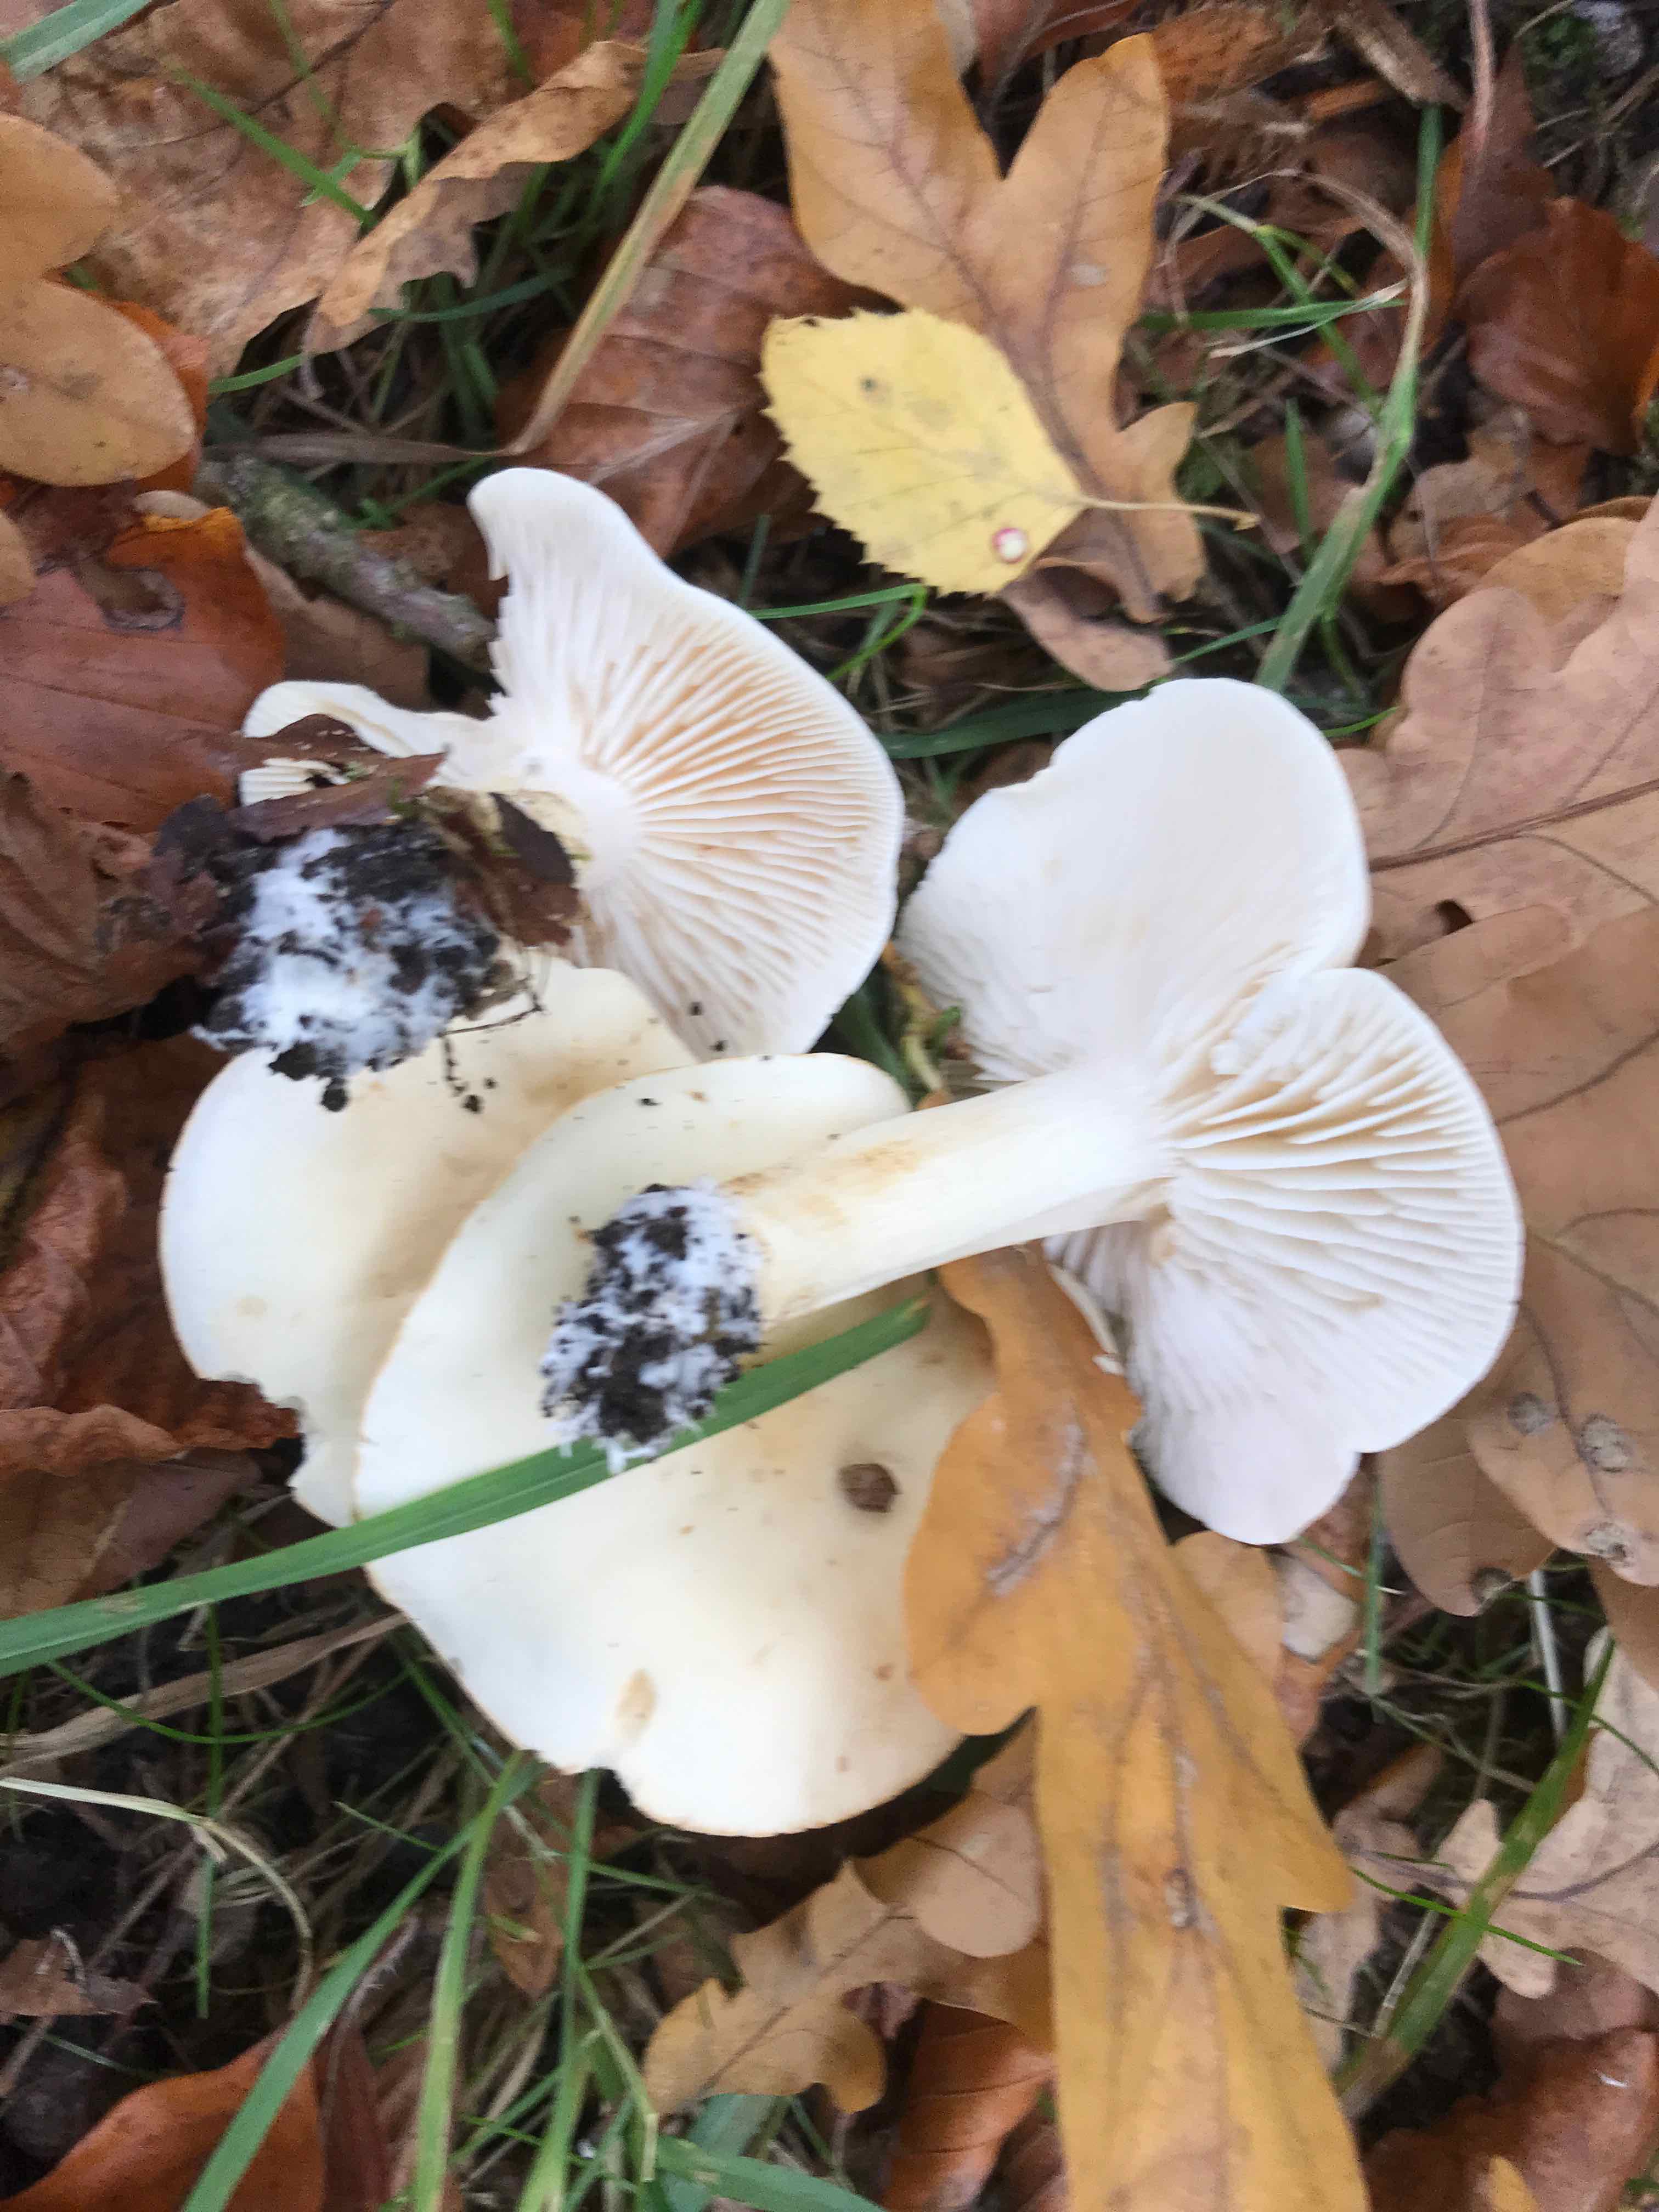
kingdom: Fungi
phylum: Basidiomycota
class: Agaricomycetes
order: Agaricales
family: Tricholomataceae
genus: Tricholoma
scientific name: Tricholoma album
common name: honning-ridderhat
